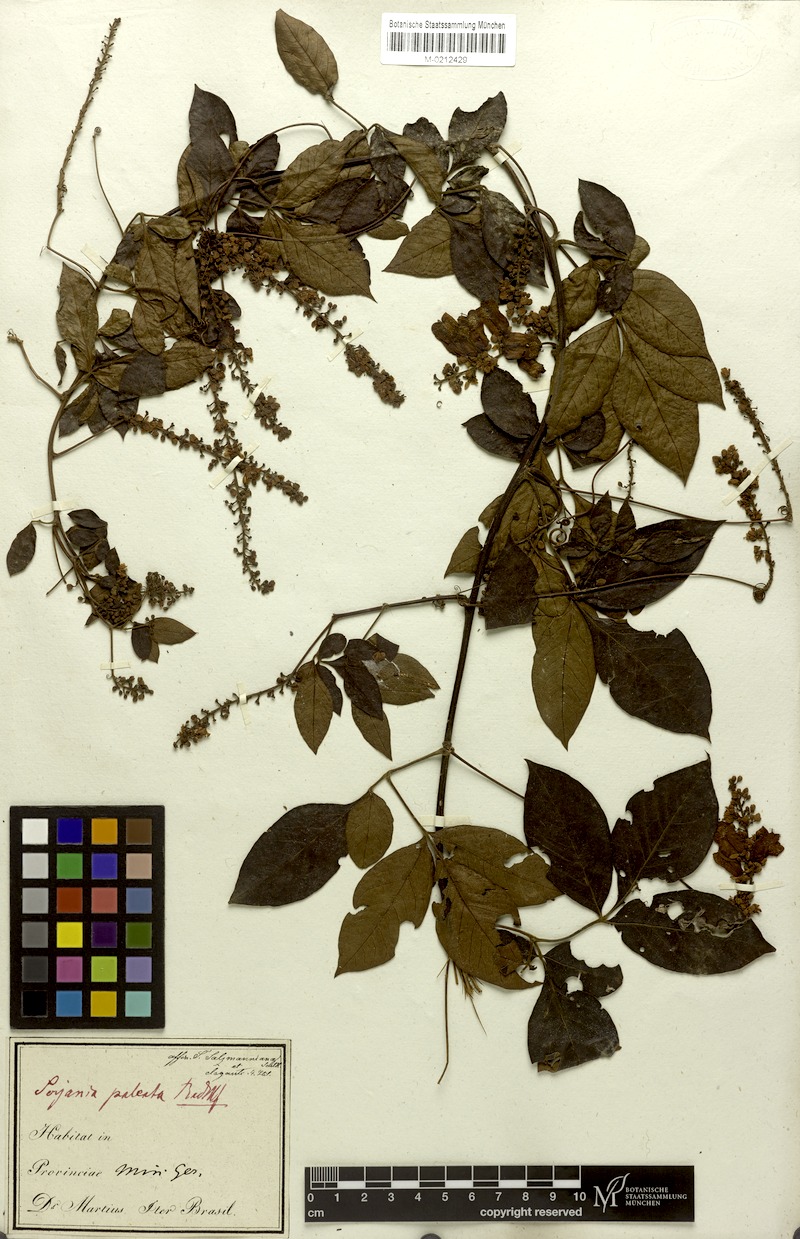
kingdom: Plantae
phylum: Tracheophyta
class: Magnoliopsida
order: Sapindales
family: Sapindaceae
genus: Serjania
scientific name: Serjania paleata
